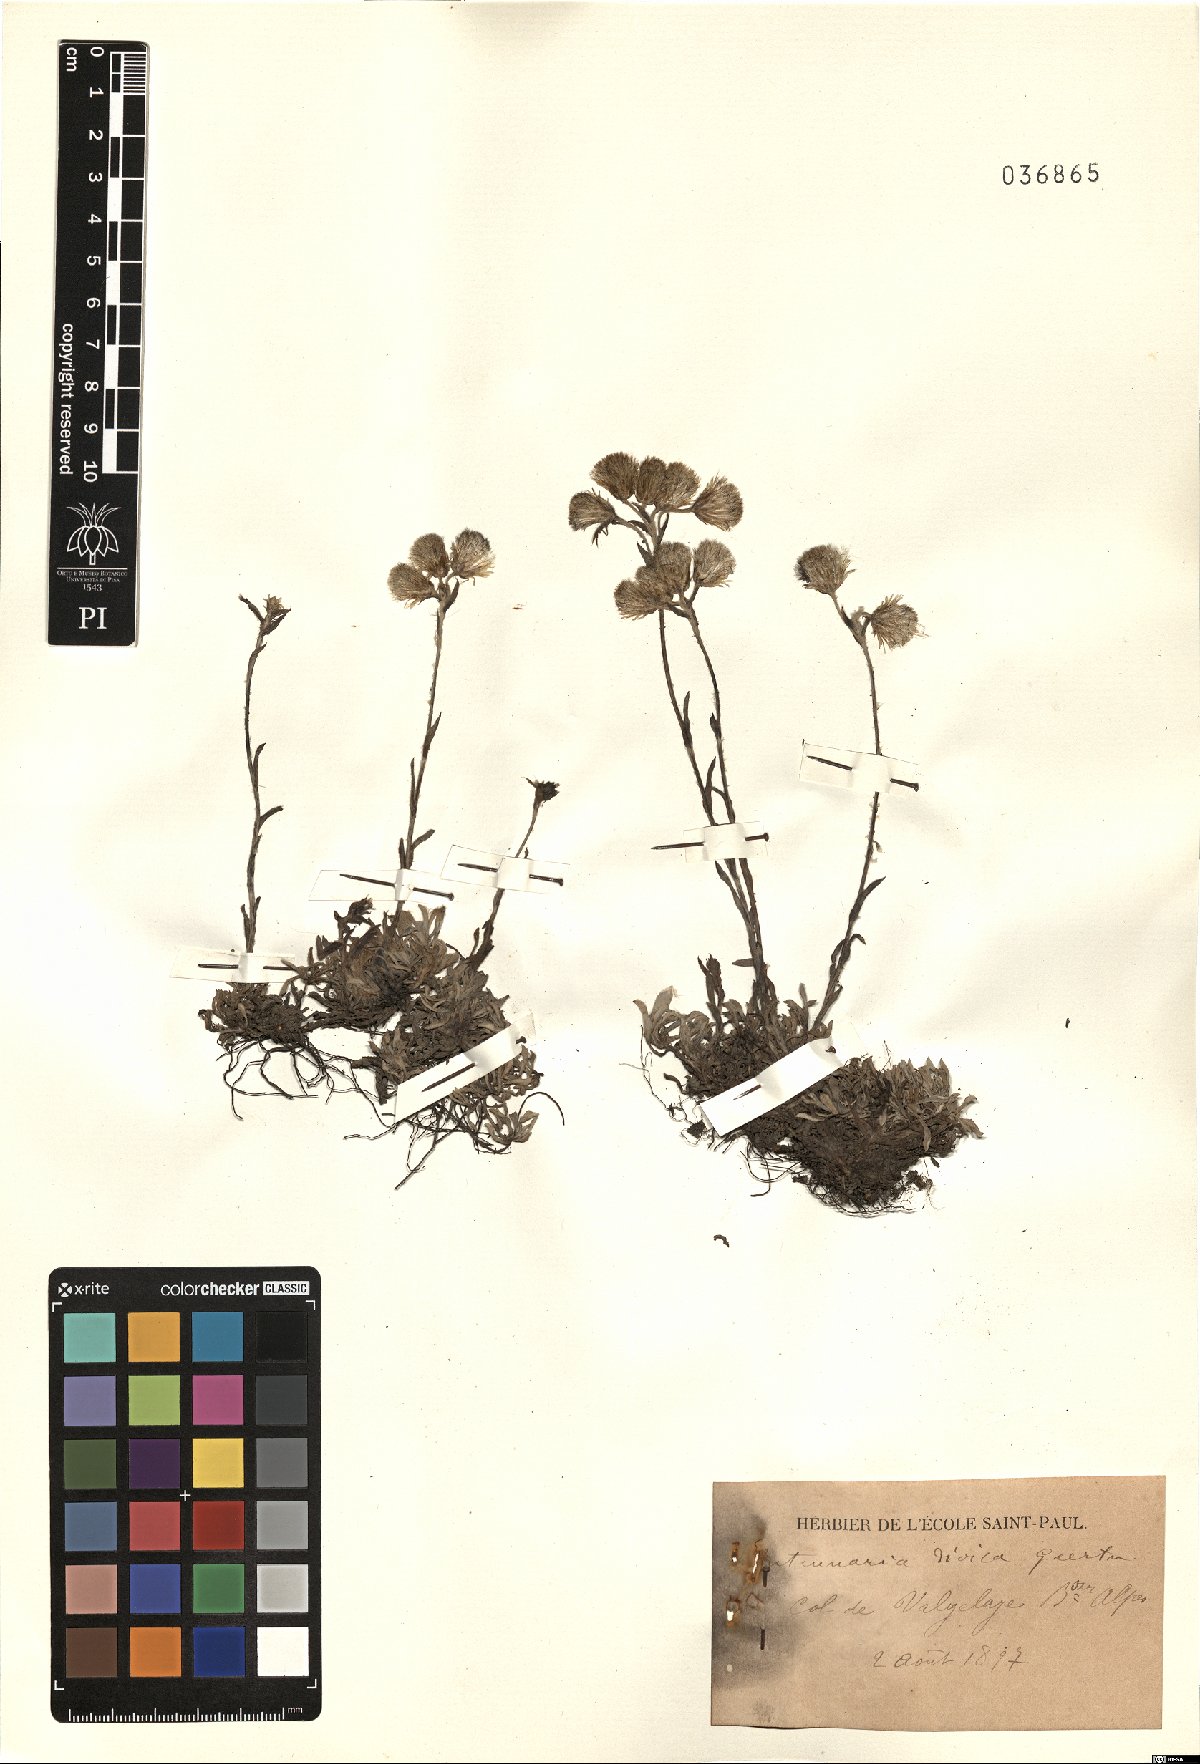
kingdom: Plantae
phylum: Tracheophyta
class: Magnoliopsida
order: Asterales
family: Asteraceae
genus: Antennaria
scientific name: Antennaria dioica
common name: Mountain everlasting
